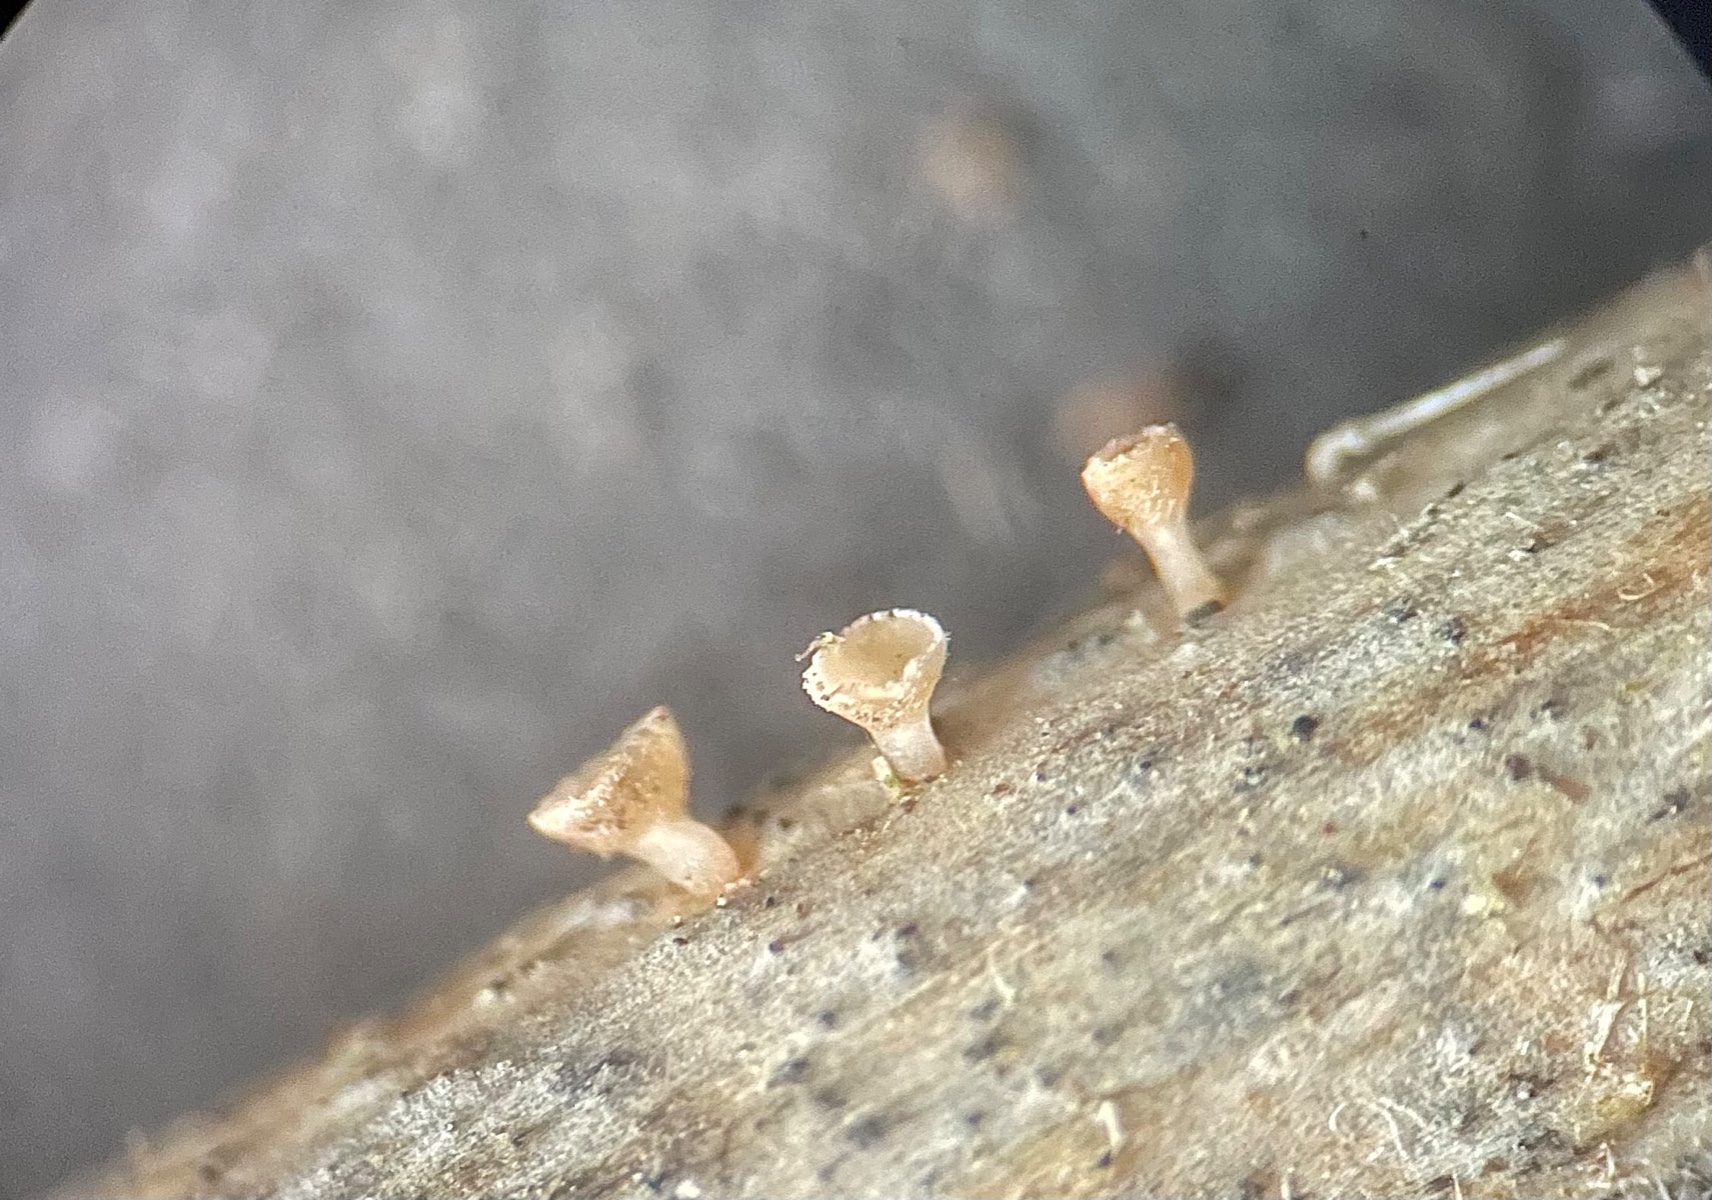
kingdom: Fungi
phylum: Ascomycota
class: Leotiomycetes
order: Helotiales
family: Helotiaceae
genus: Cyathicula
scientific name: Cyathicula cyathoidea
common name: pokal-stilkskive
